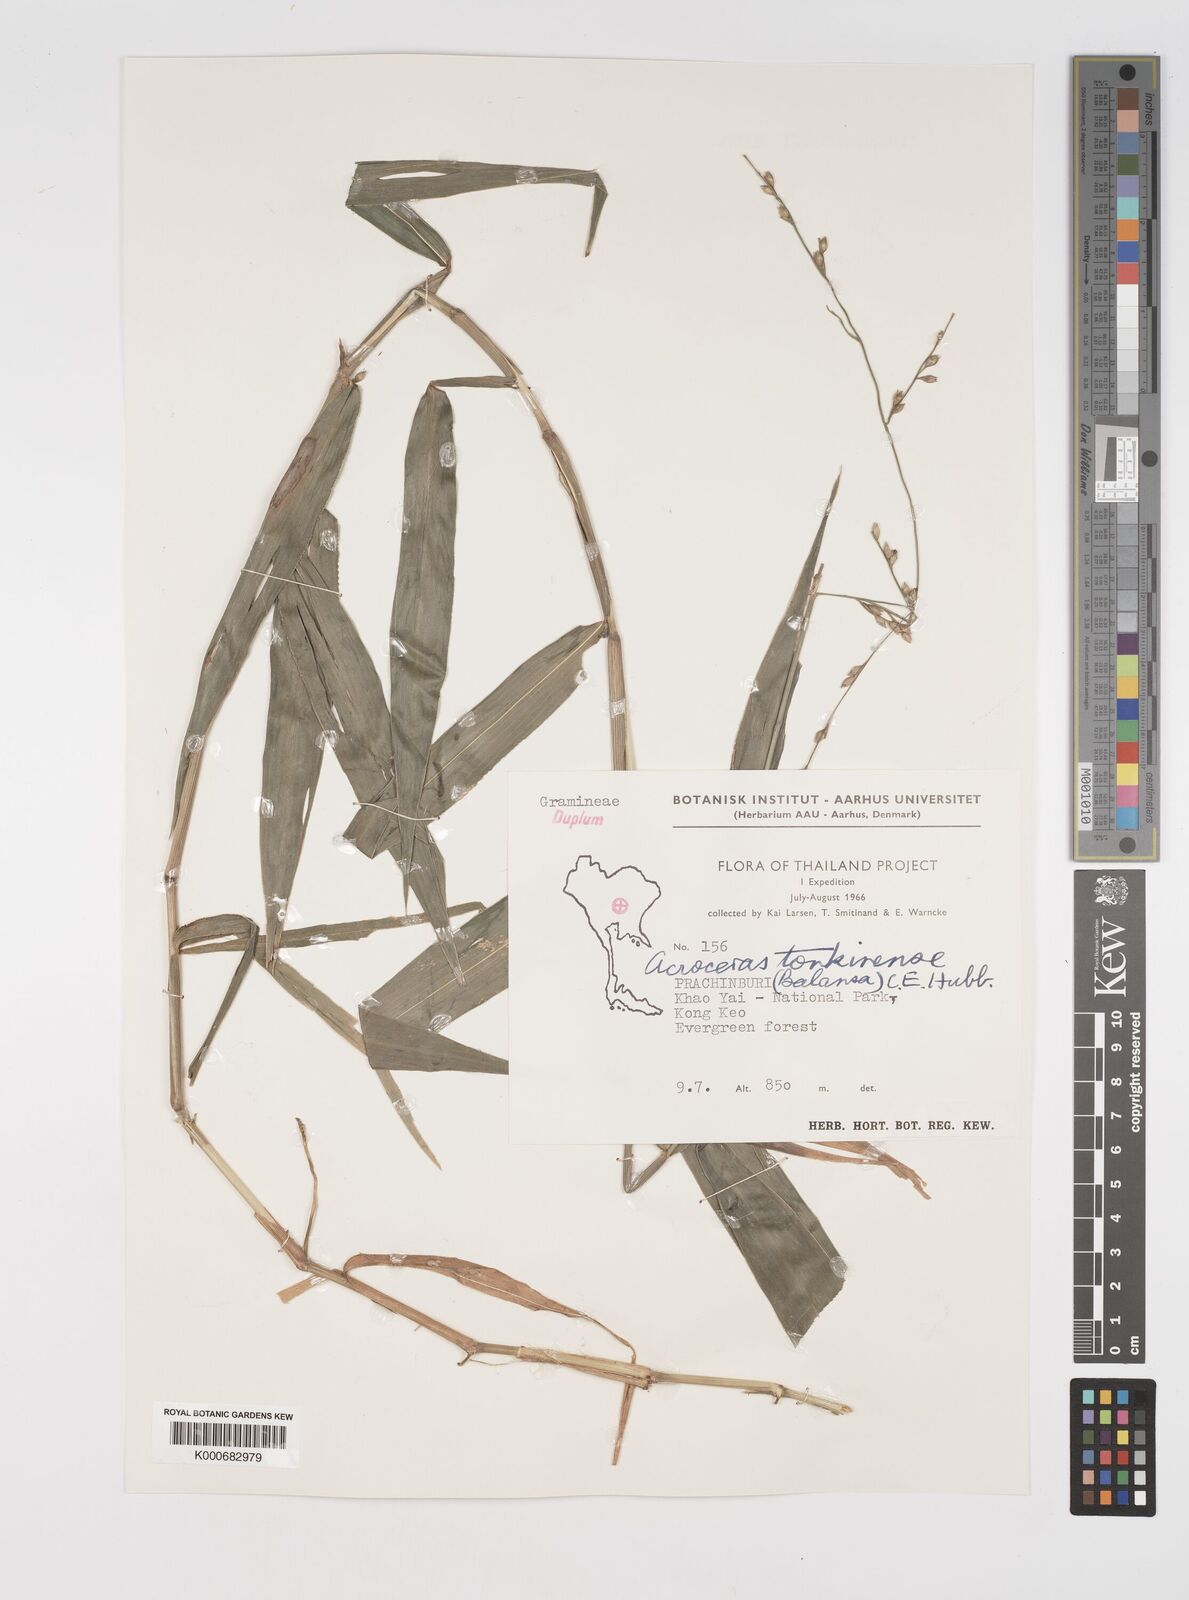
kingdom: Plantae
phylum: Tracheophyta
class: Liliopsida
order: Poales
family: Poaceae
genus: Acroceras
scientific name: Acroceras
